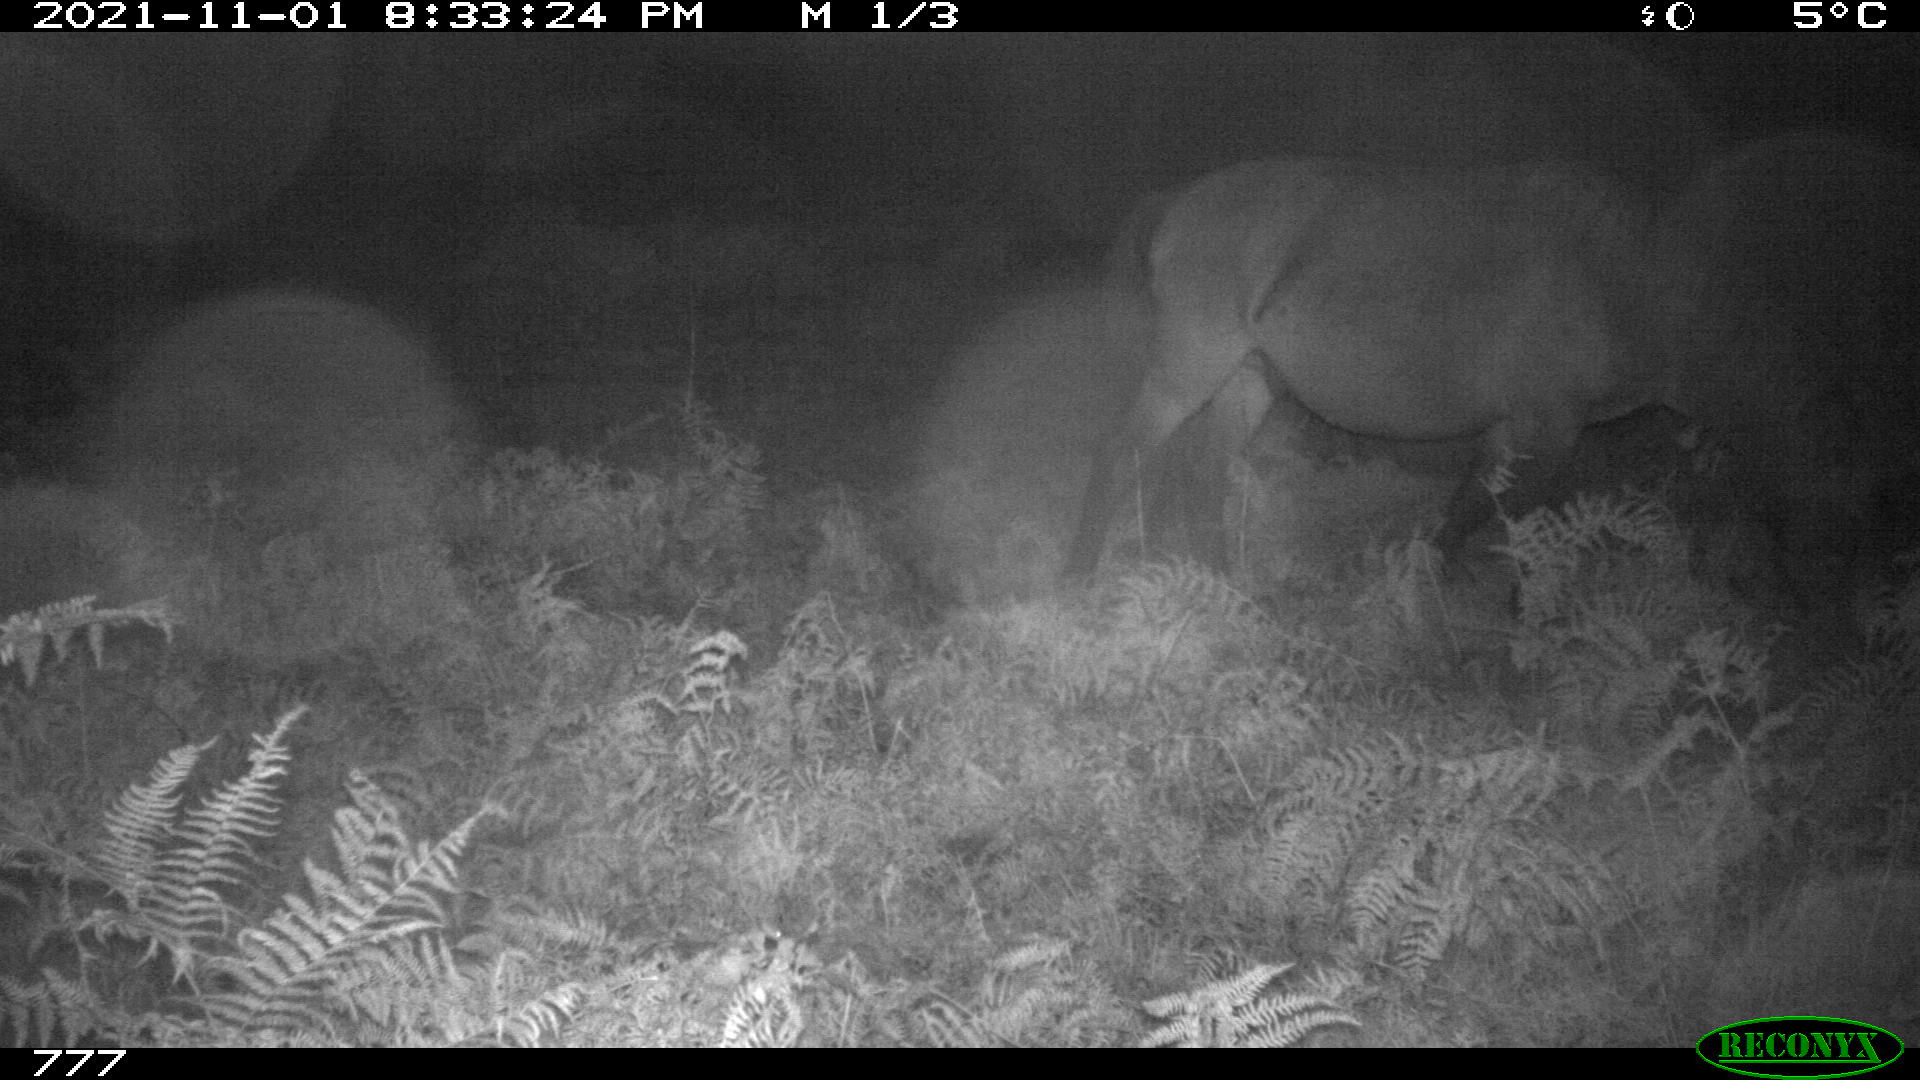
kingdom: Animalia
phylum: Chordata
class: Mammalia
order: Perissodactyla
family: Equidae
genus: Equus
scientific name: Equus caballus
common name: Horse
